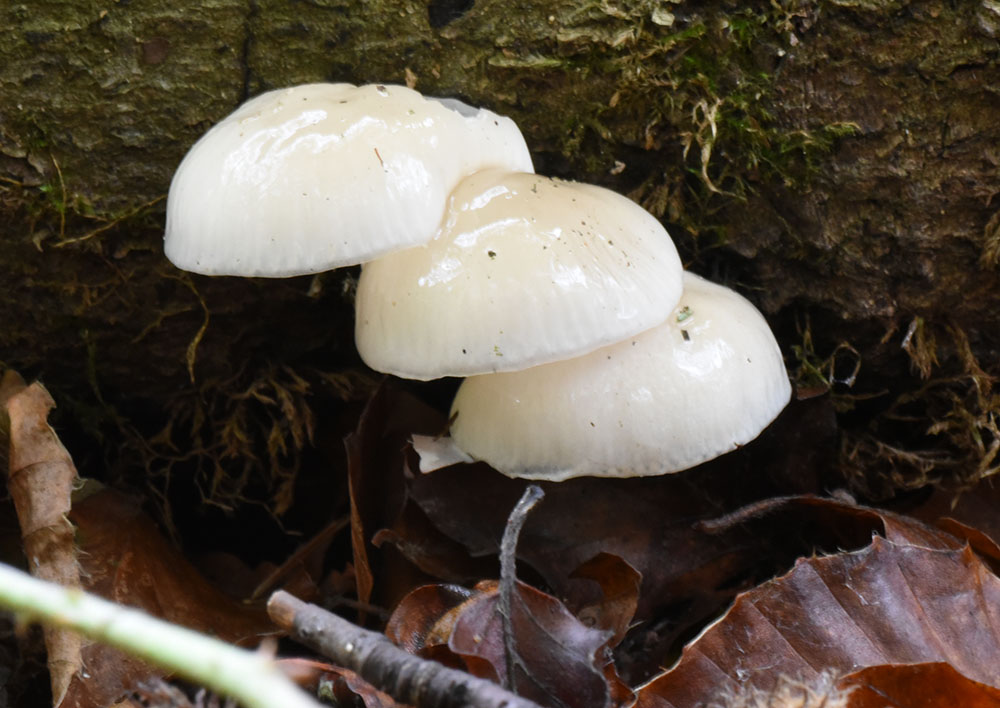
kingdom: Fungi
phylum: Basidiomycota
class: Agaricomycetes
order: Agaricales
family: Physalacriaceae
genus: Mucidula
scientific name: Mucidula mucida
